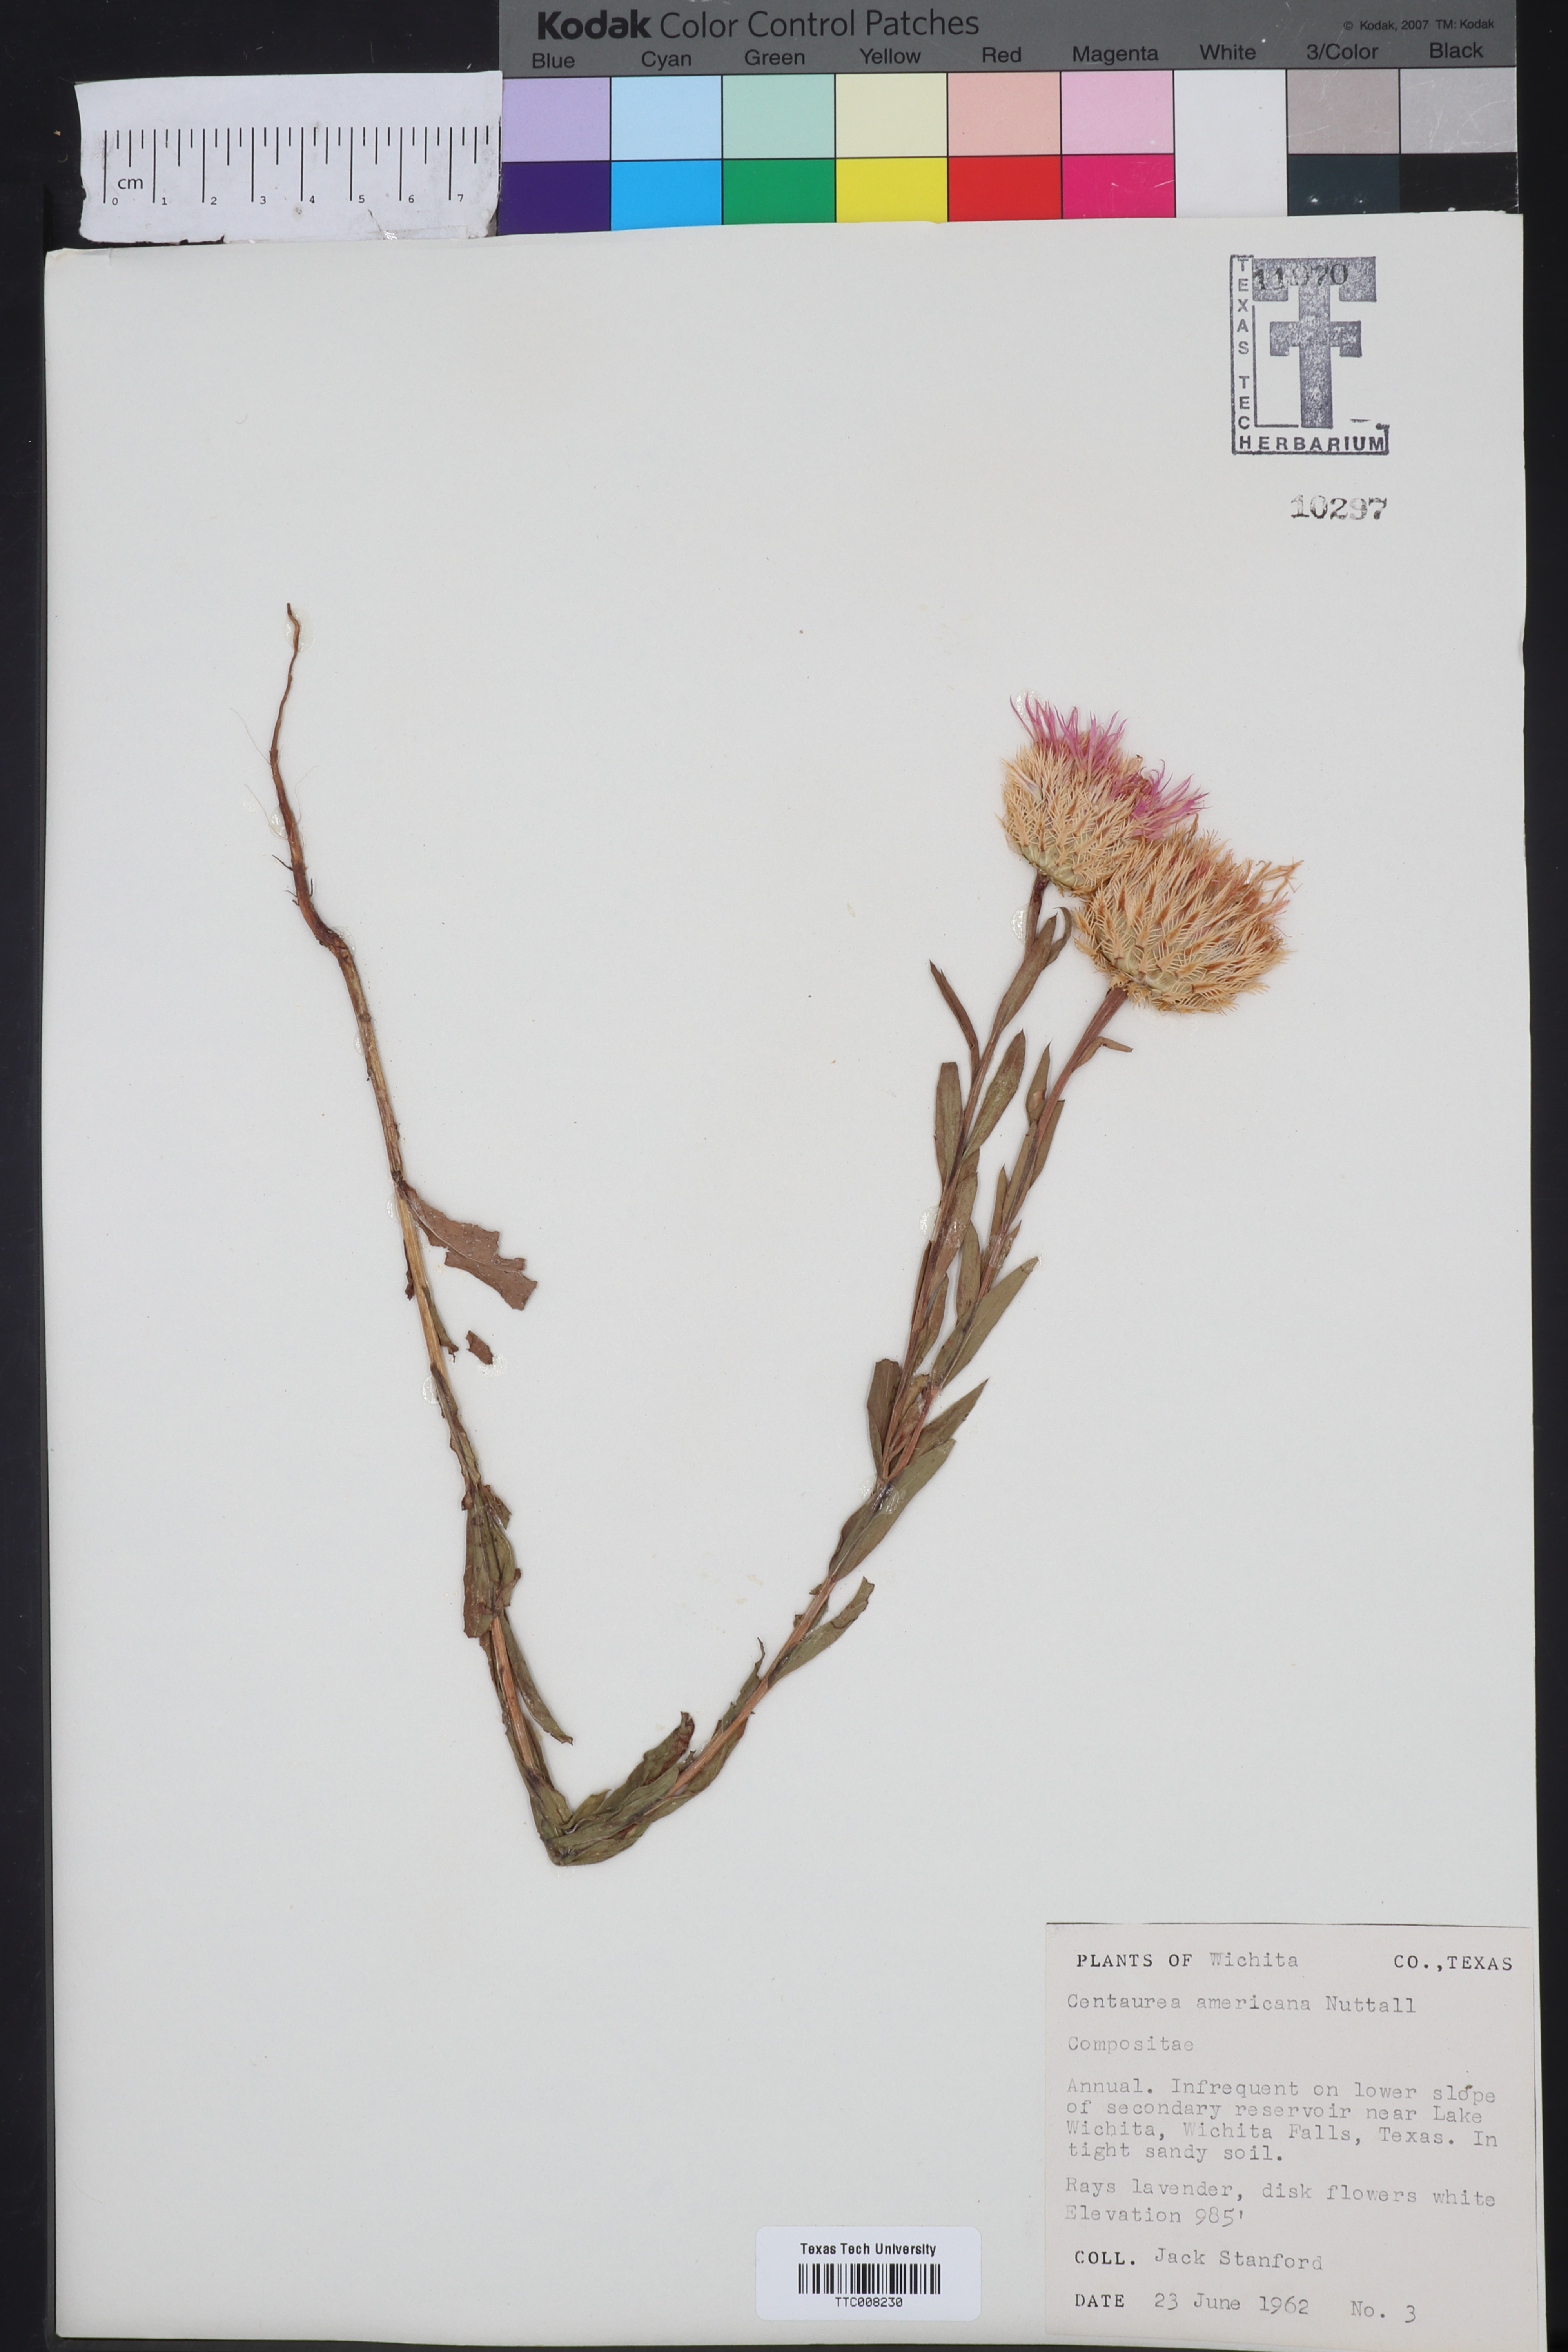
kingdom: Plantae
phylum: Tracheophyta
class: Magnoliopsida
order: Asterales
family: Asteraceae
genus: Plectocephalus
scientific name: Plectocephalus americanus
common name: American basket-flower
